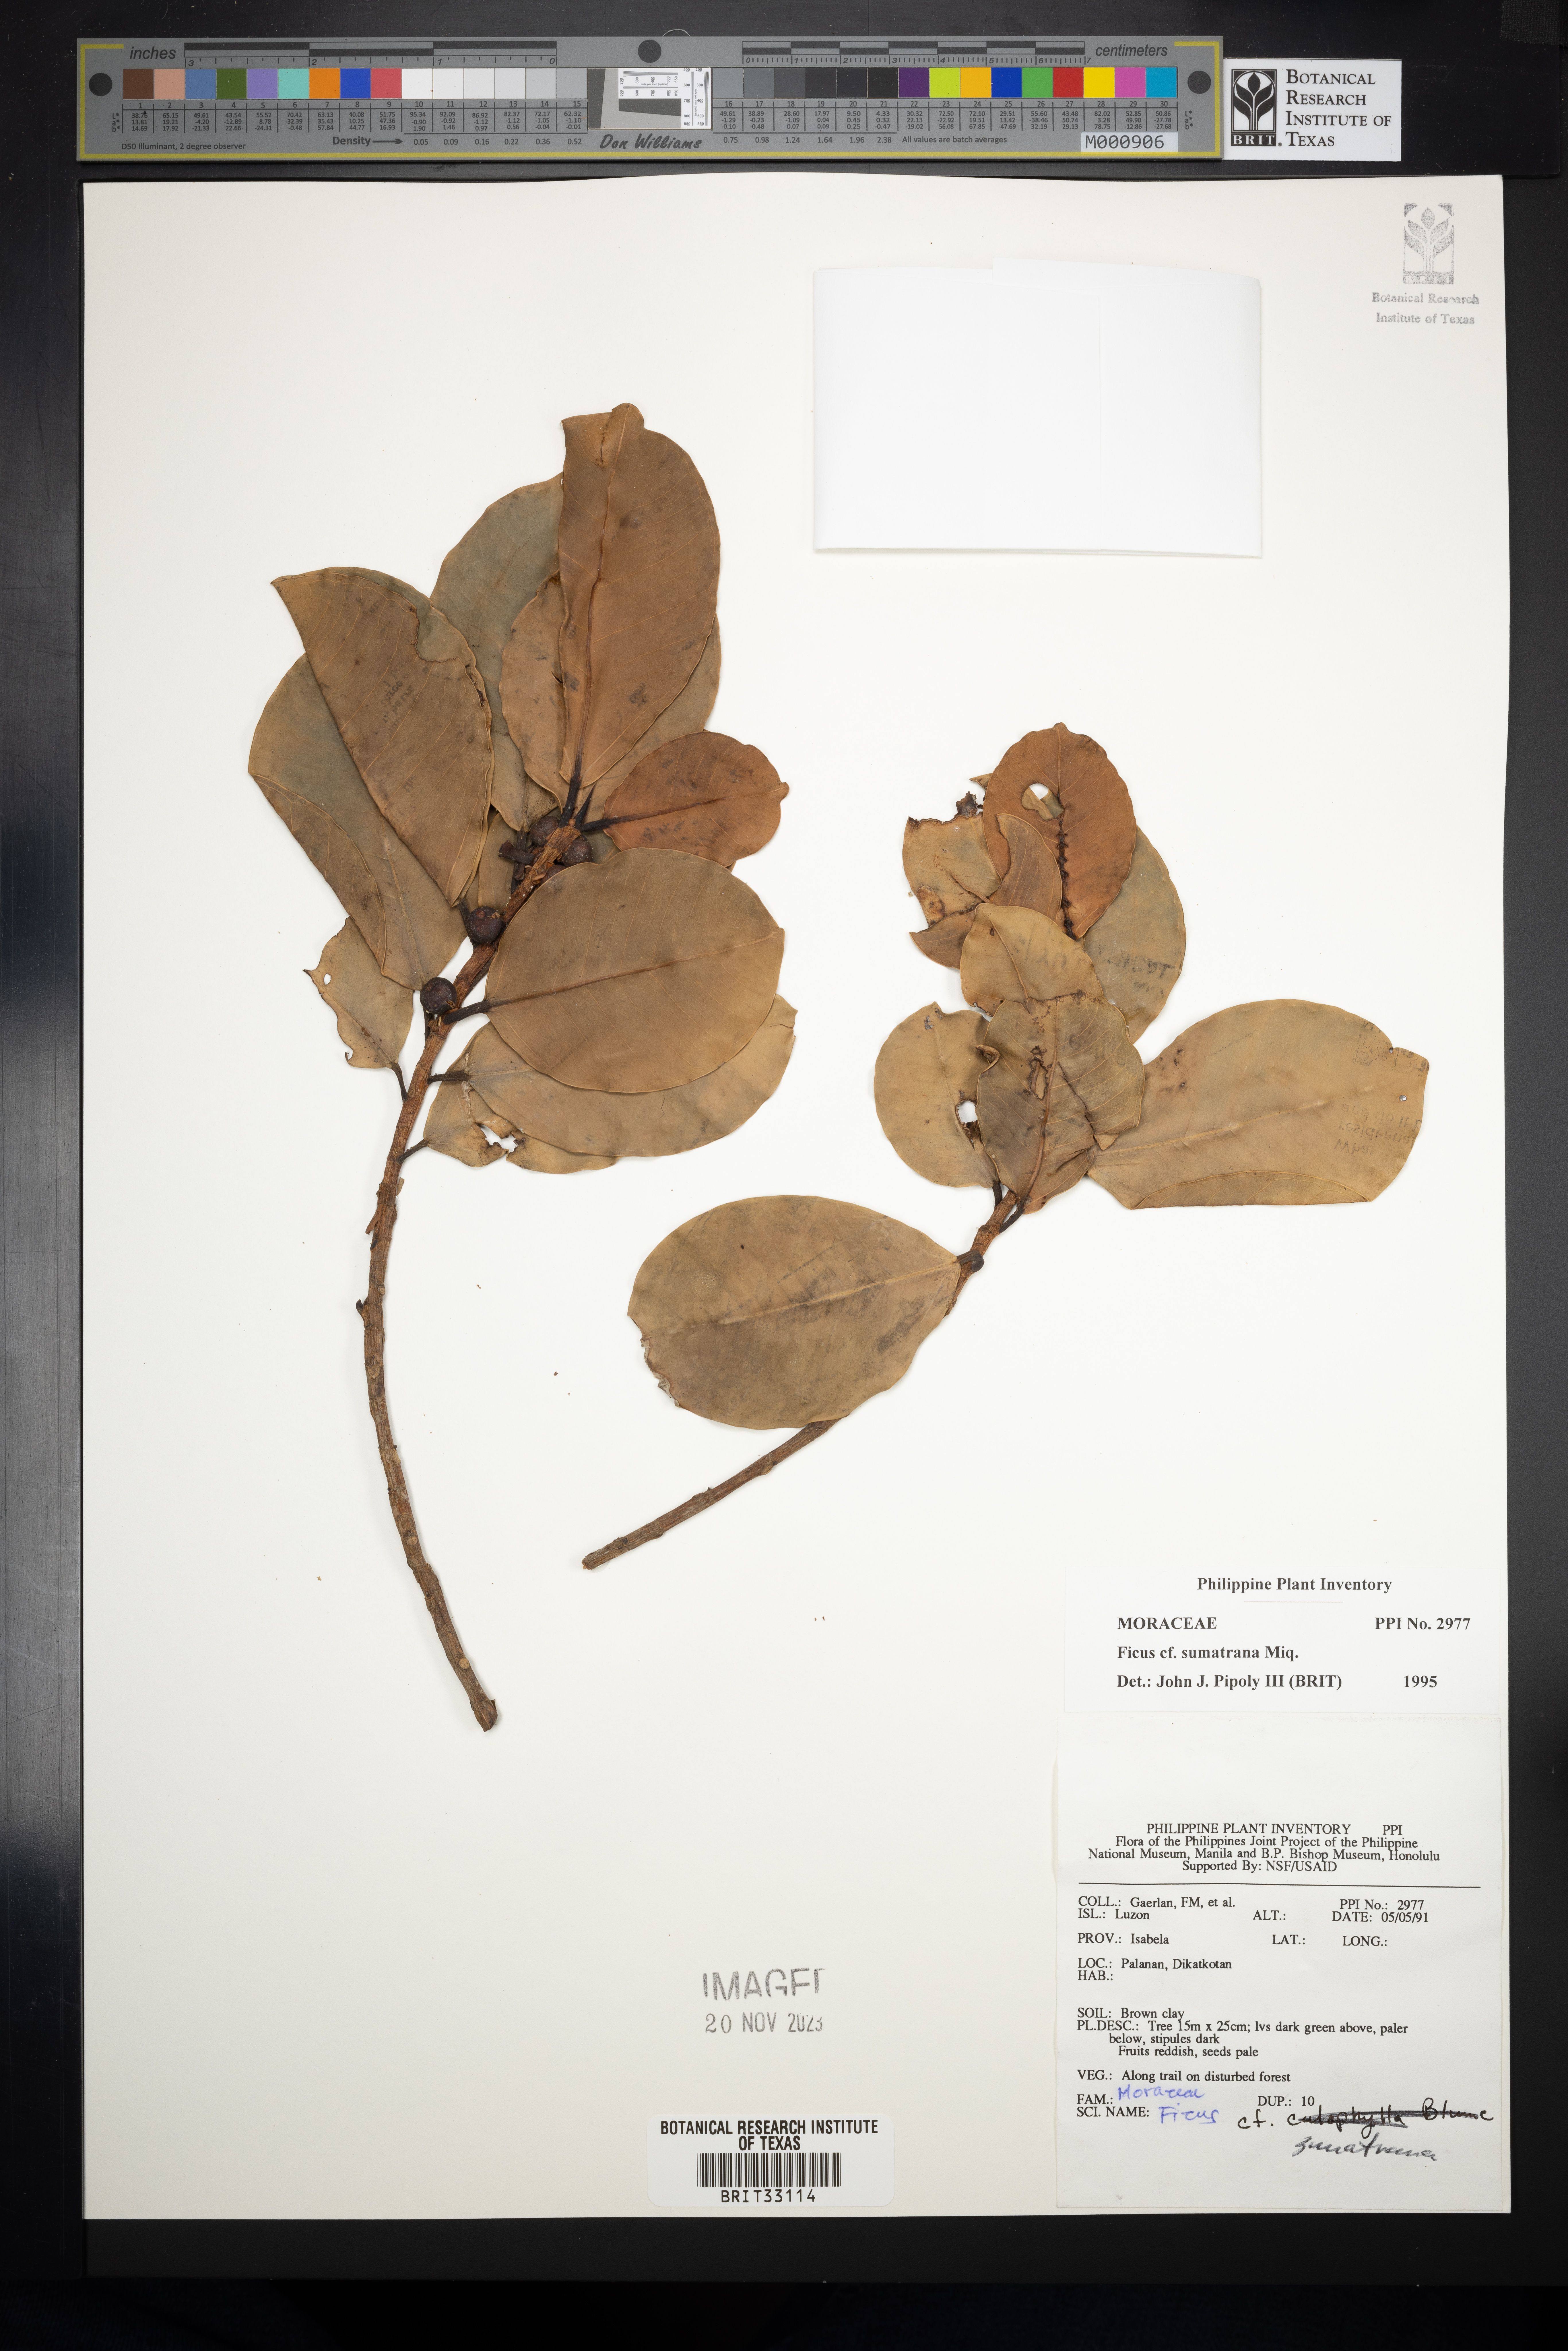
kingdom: Plantae
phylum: Tracheophyta
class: Magnoliopsida
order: Rosales
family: Moraceae
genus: Ficus
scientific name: Ficus sumatrana
